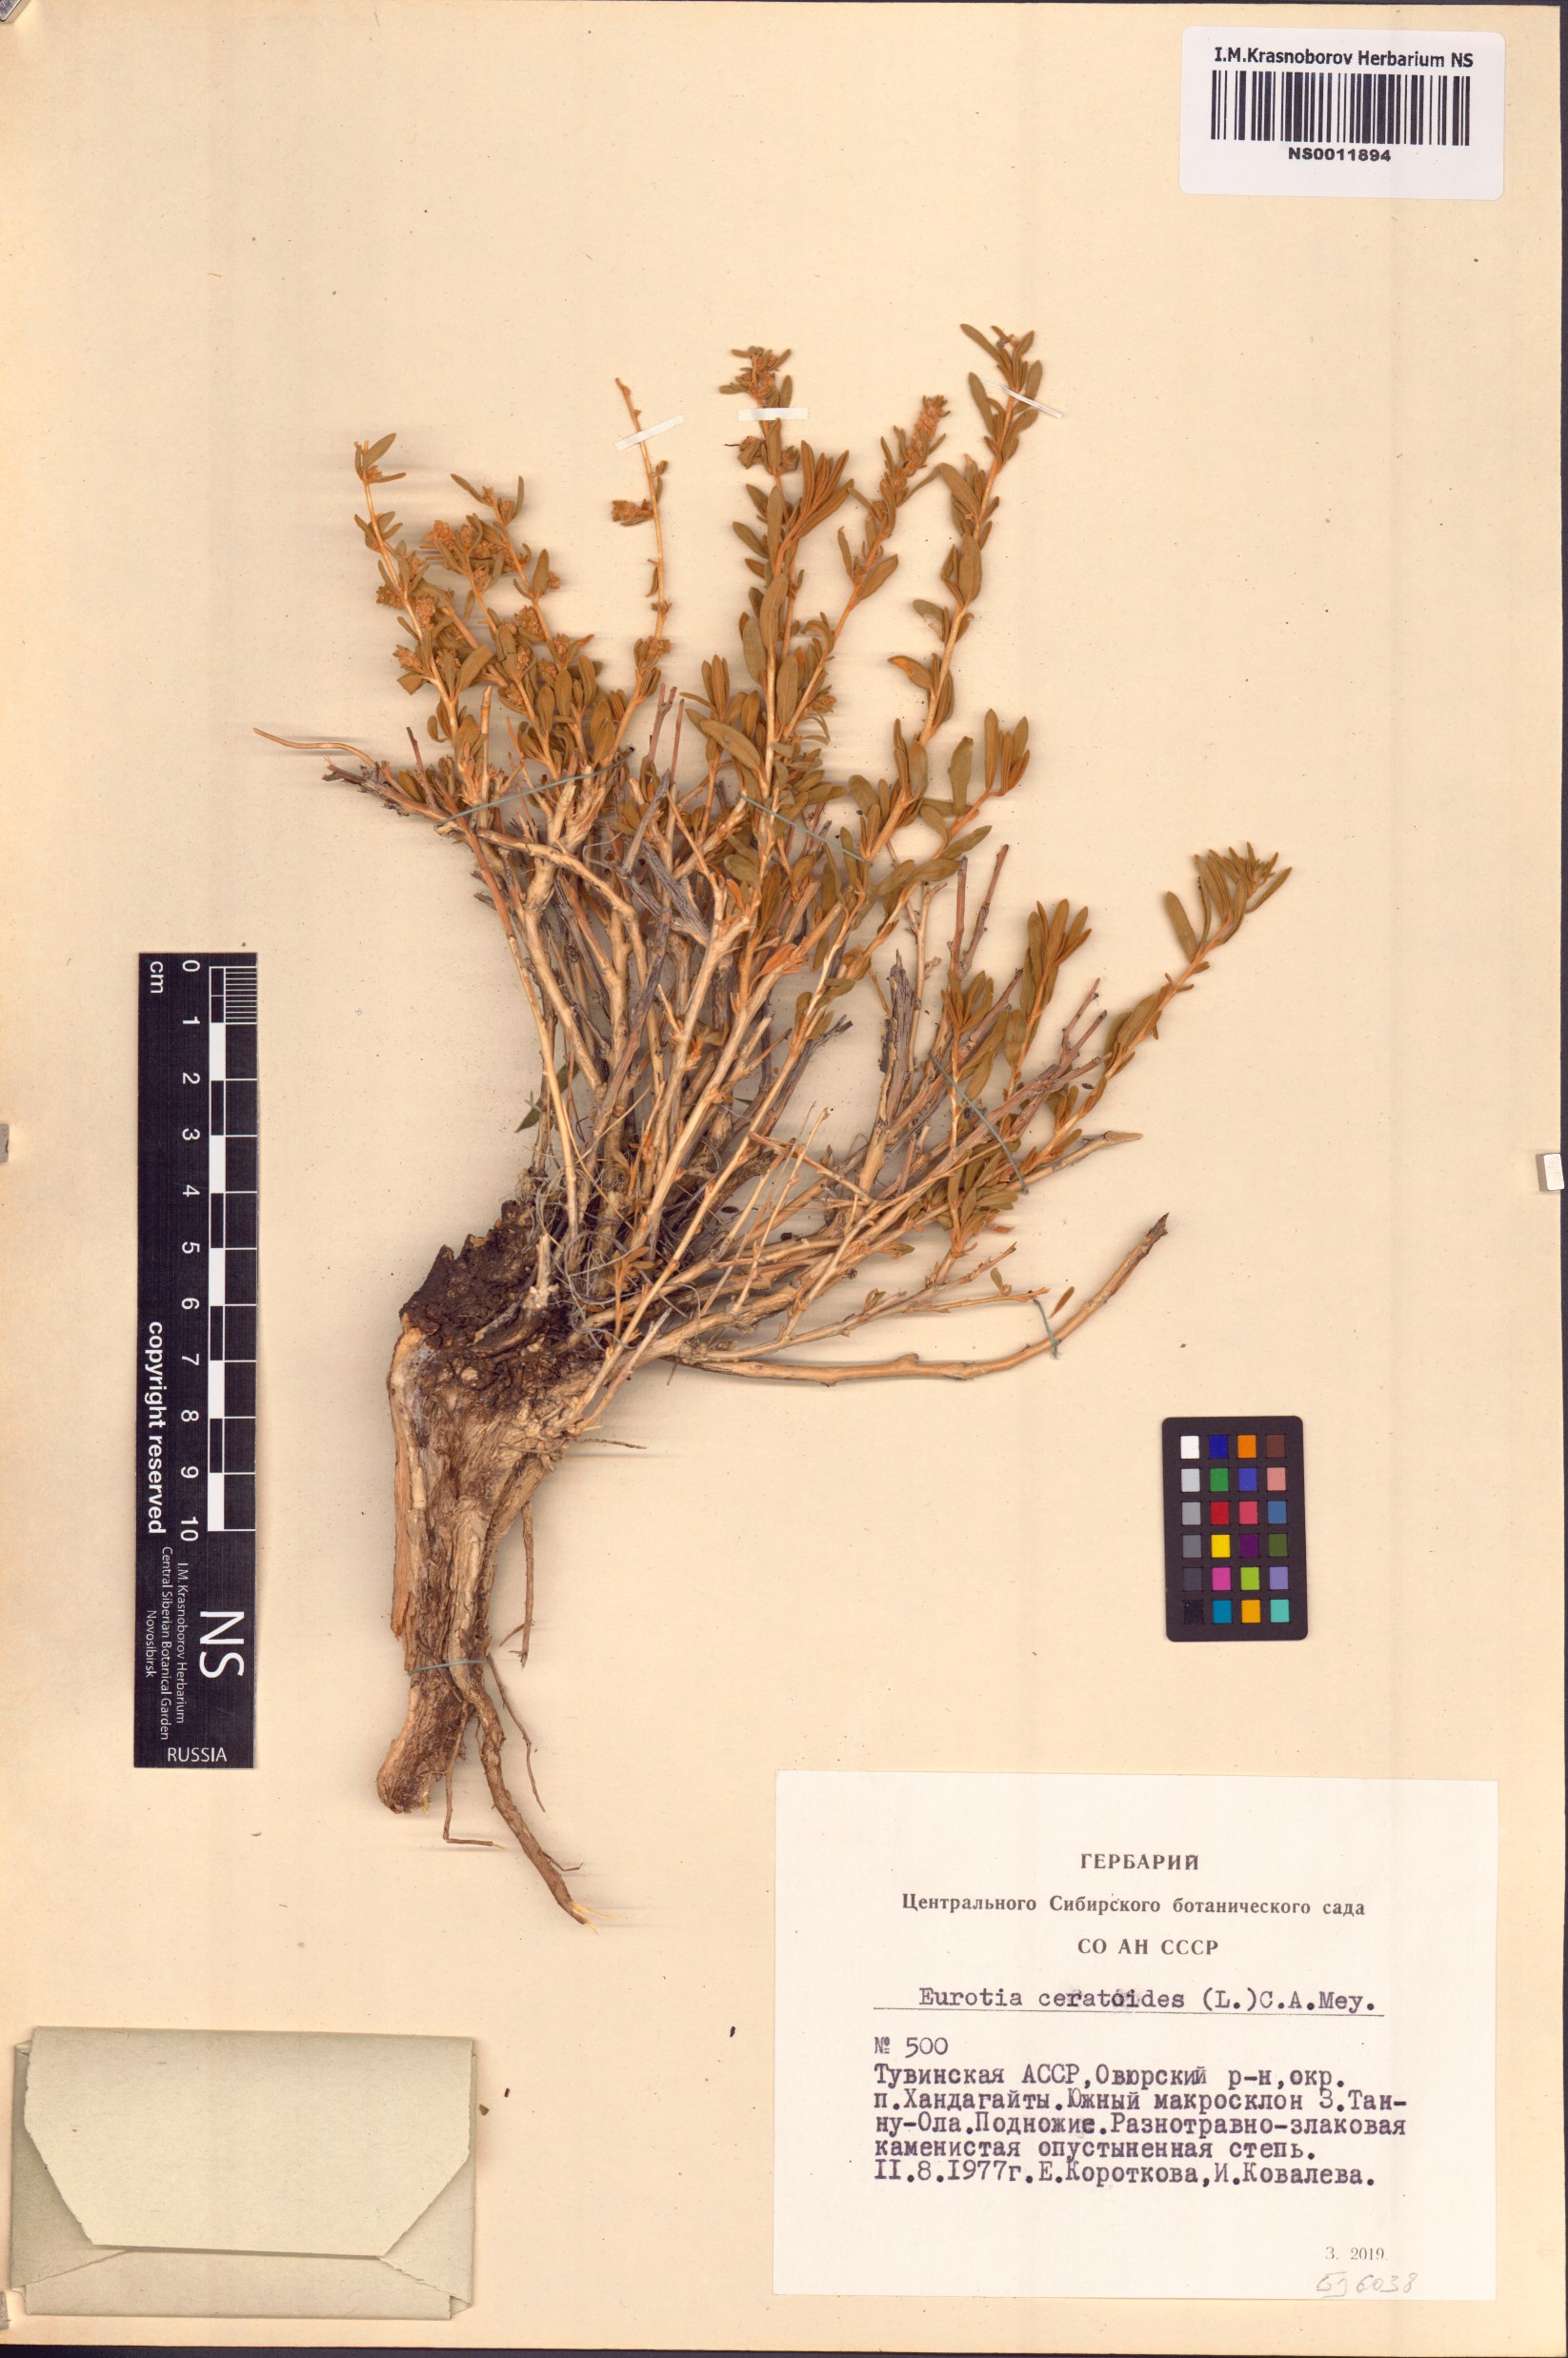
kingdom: Plantae
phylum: Tracheophyta
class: Magnoliopsida
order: Caryophyllales
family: Amaranthaceae
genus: Krascheninnikovia
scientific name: Krascheninnikovia ceratoides
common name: Pamirian winterfat
